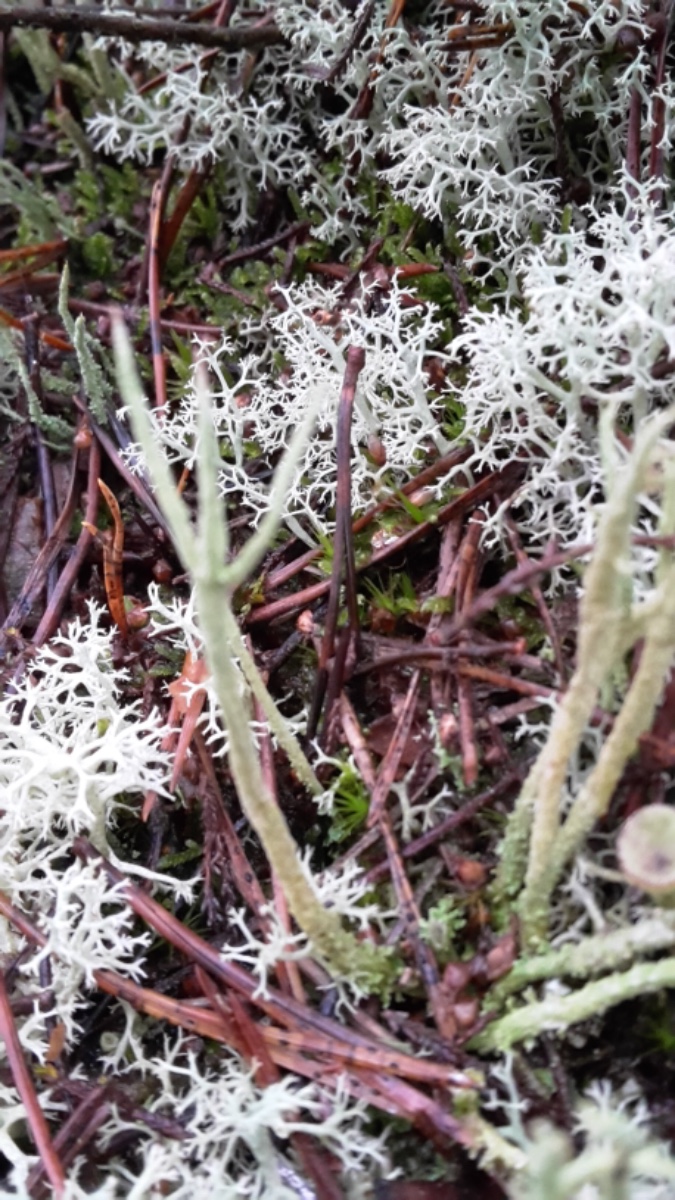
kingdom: Fungi
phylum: Ascomycota
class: Lecanoromycetes
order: Lecanorales
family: Cladoniaceae
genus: Cladonia
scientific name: Cladonia subulata
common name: spids bægerlav
